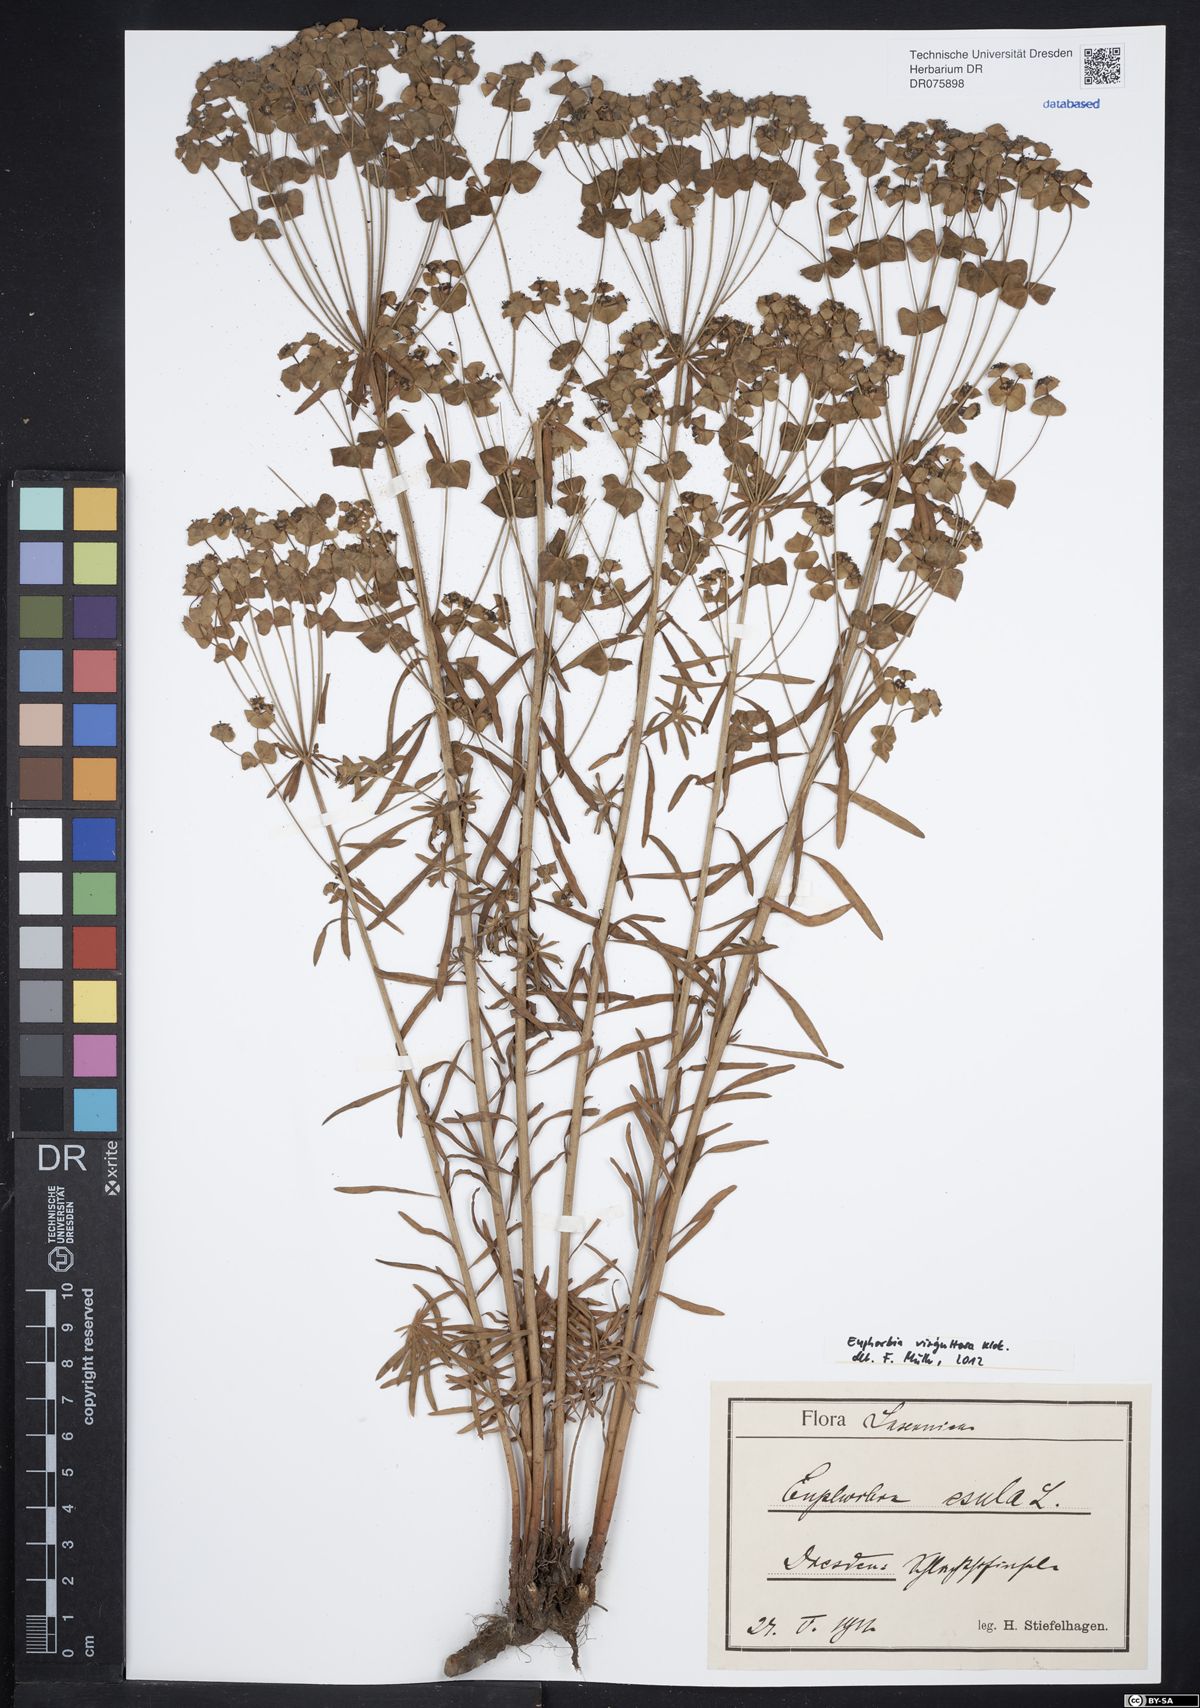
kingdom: Plantae
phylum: Tracheophyta
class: Magnoliopsida
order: Malpighiales
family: Euphorbiaceae
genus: Euphorbia
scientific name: Euphorbia saratoi
